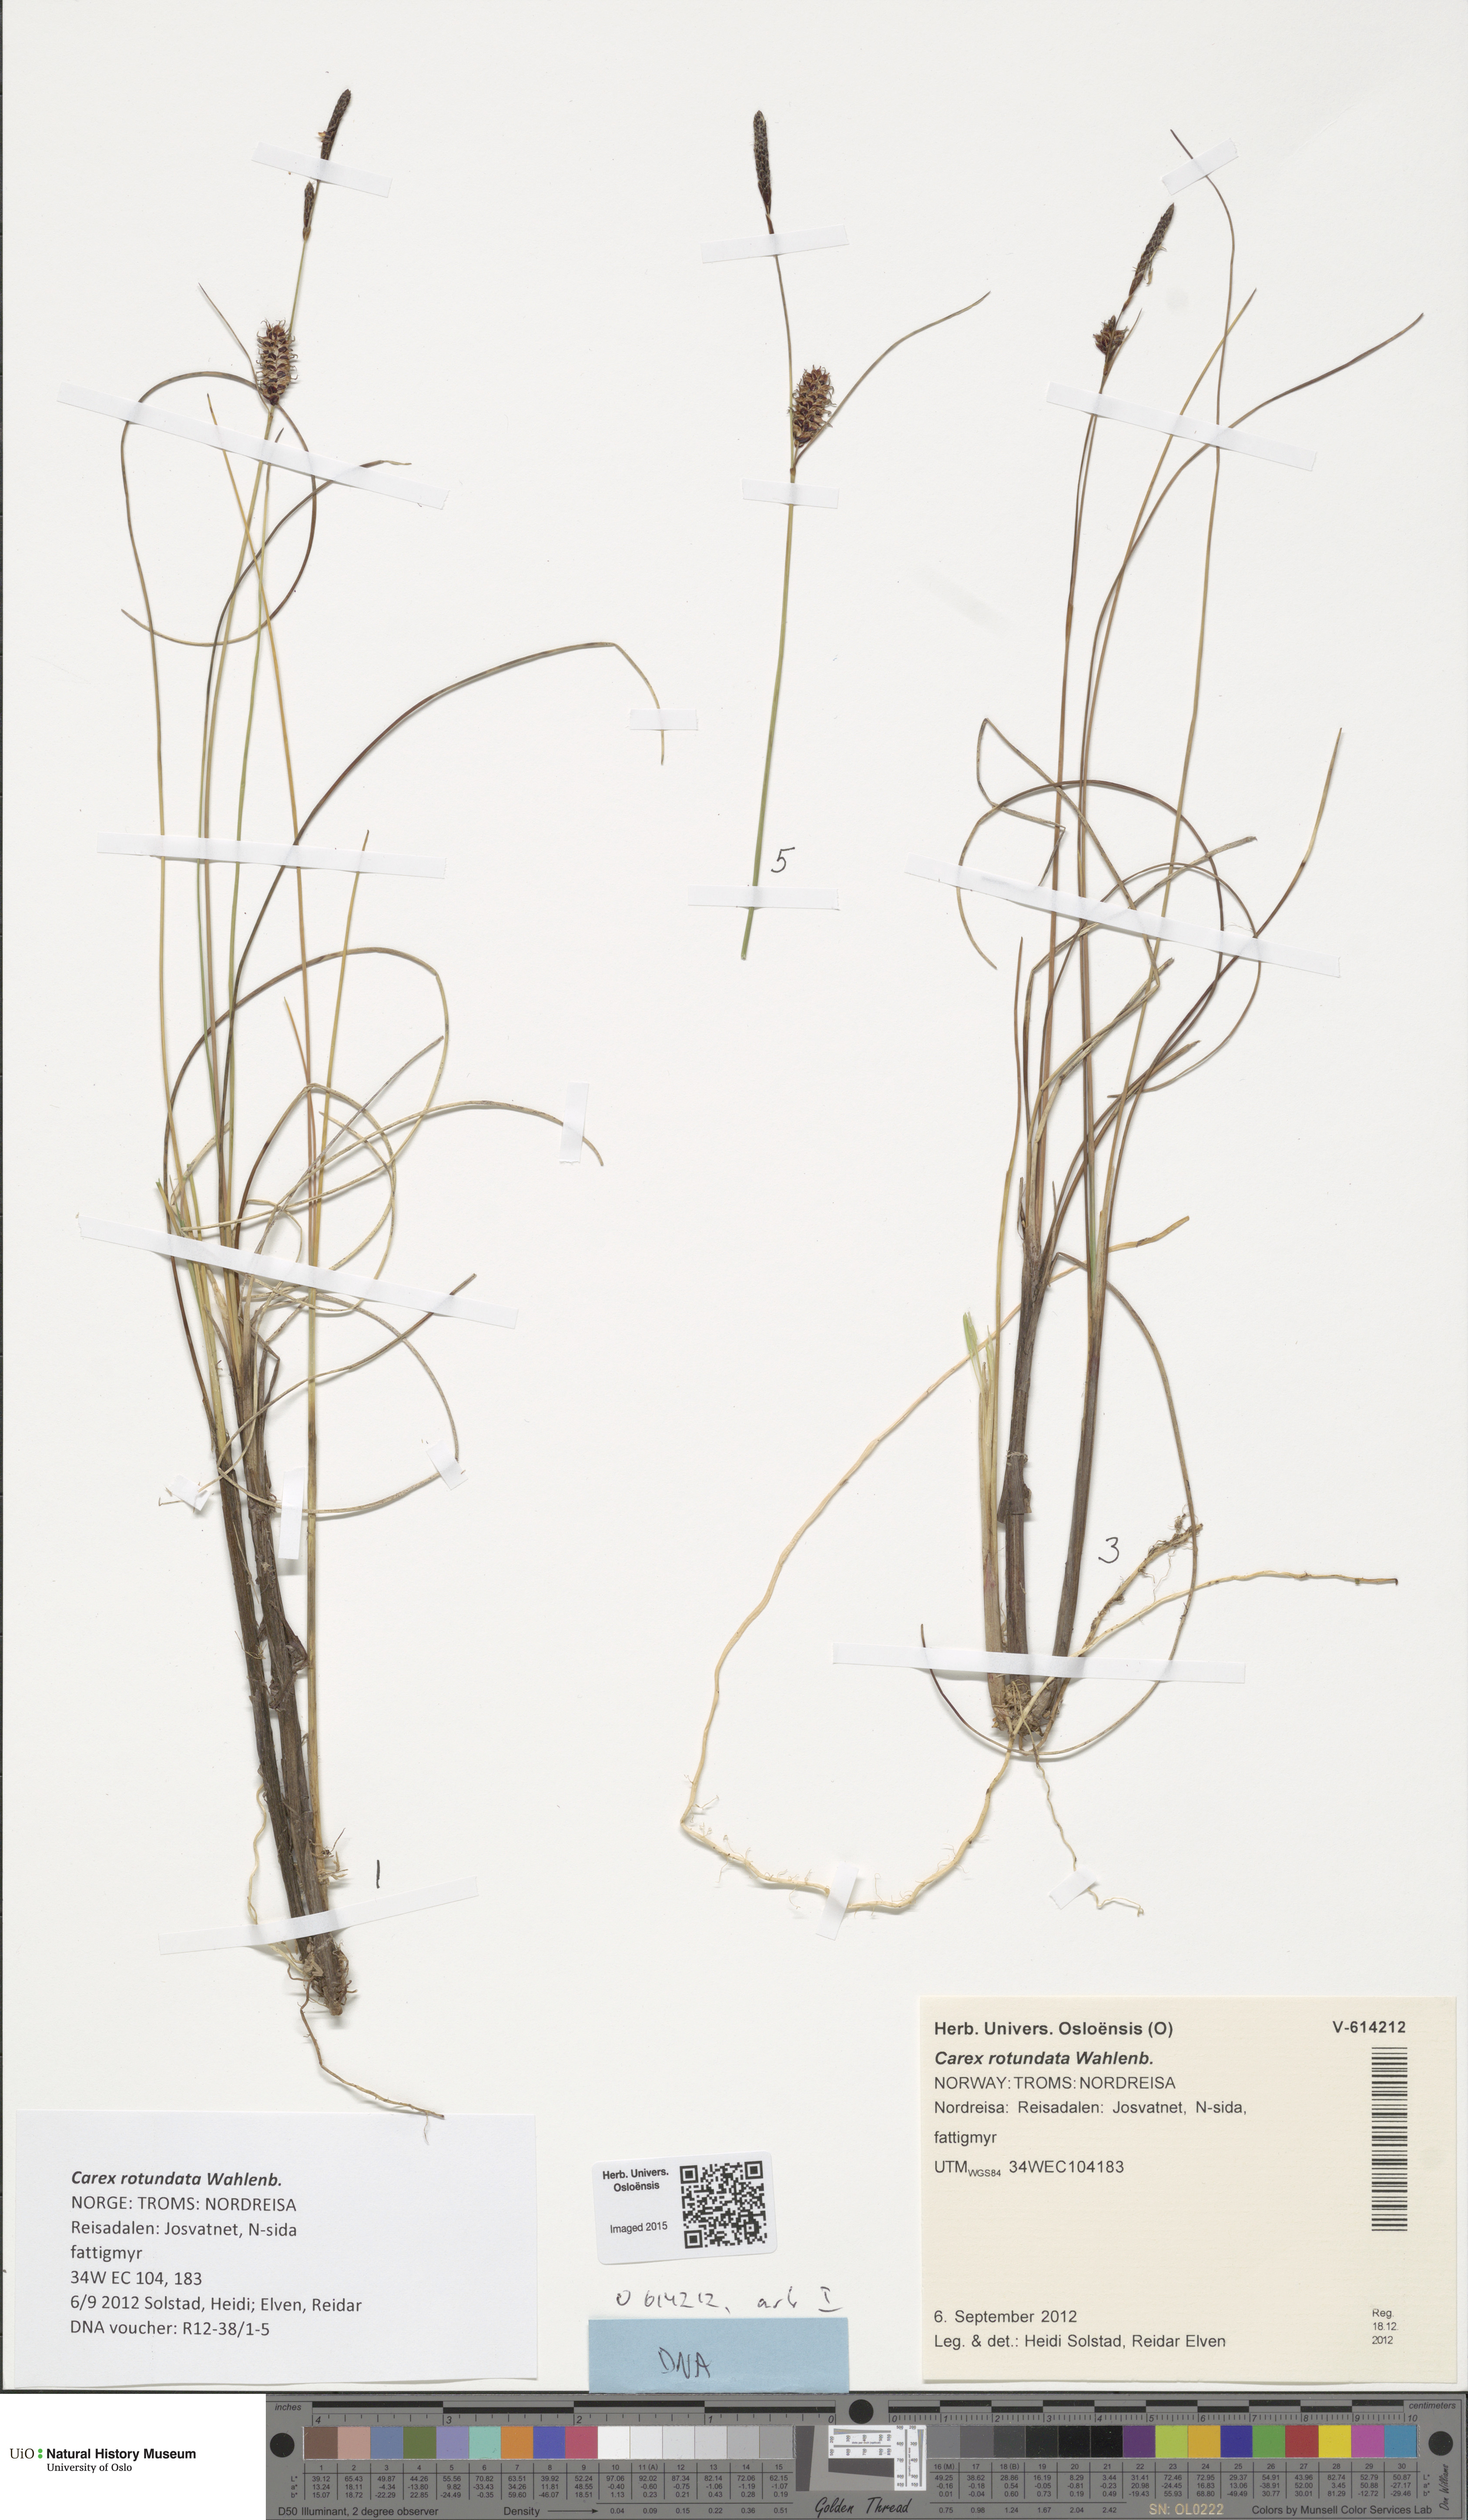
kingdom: Plantae
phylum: Tracheophyta
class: Liliopsida
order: Poales
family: Cyperaceae
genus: Carex
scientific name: Carex rotundata
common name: Round-fruited sedge
